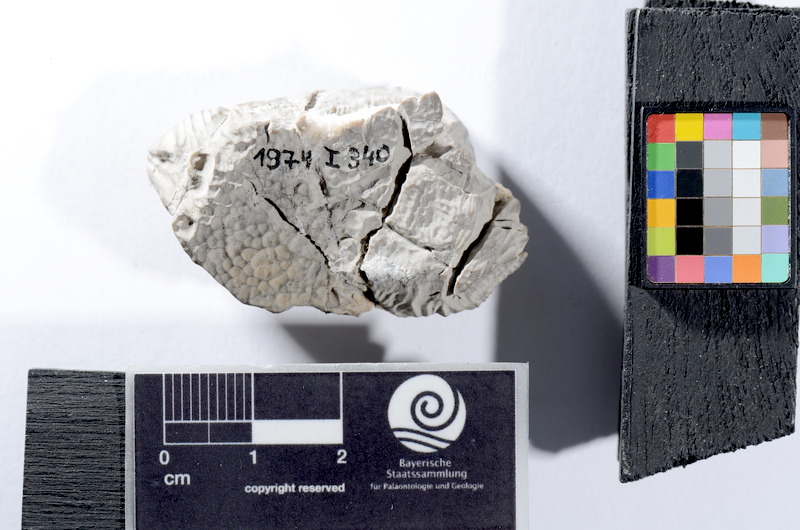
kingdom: Animalia
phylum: Chordata
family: Sphaerodontidae
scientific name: Sphaerodontidae
